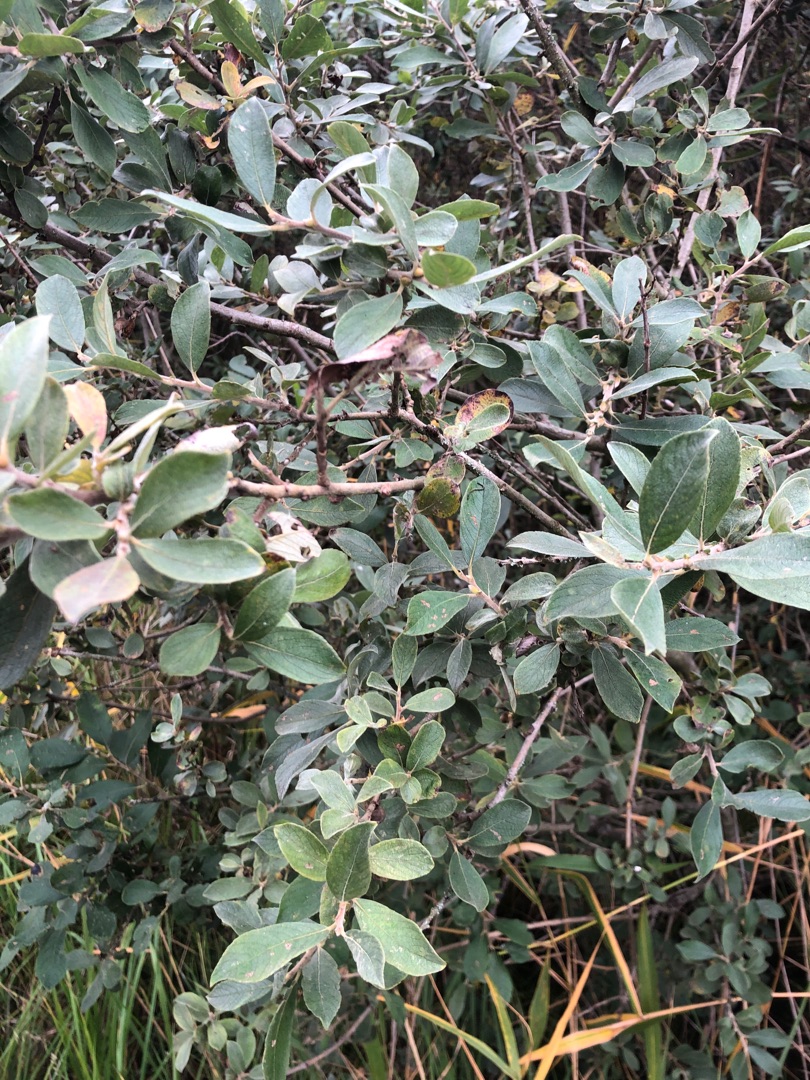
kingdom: Plantae
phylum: Tracheophyta
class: Magnoliopsida
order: Malpighiales
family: Salicaceae
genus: Salix
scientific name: Salix cinerea
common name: Grå-pil
